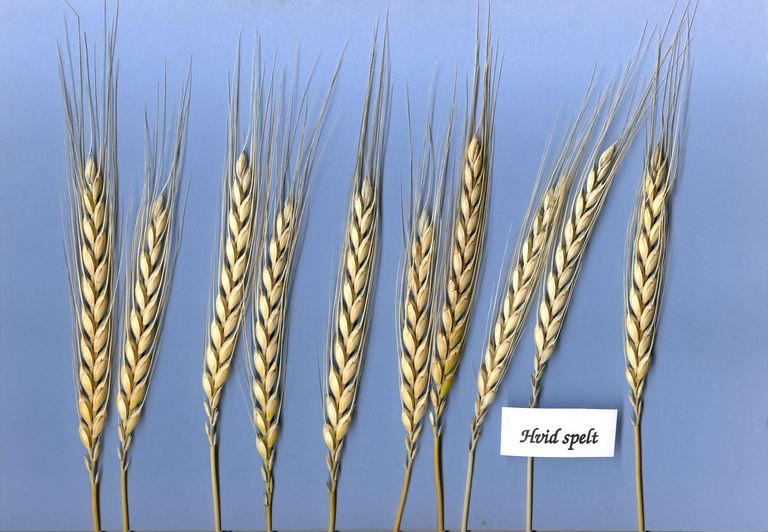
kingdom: Plantae
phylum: Tracheophyta
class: Liliopsida
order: Poales
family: Poaceae
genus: Triticum
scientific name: Triticum aestivum
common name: Common wheat
